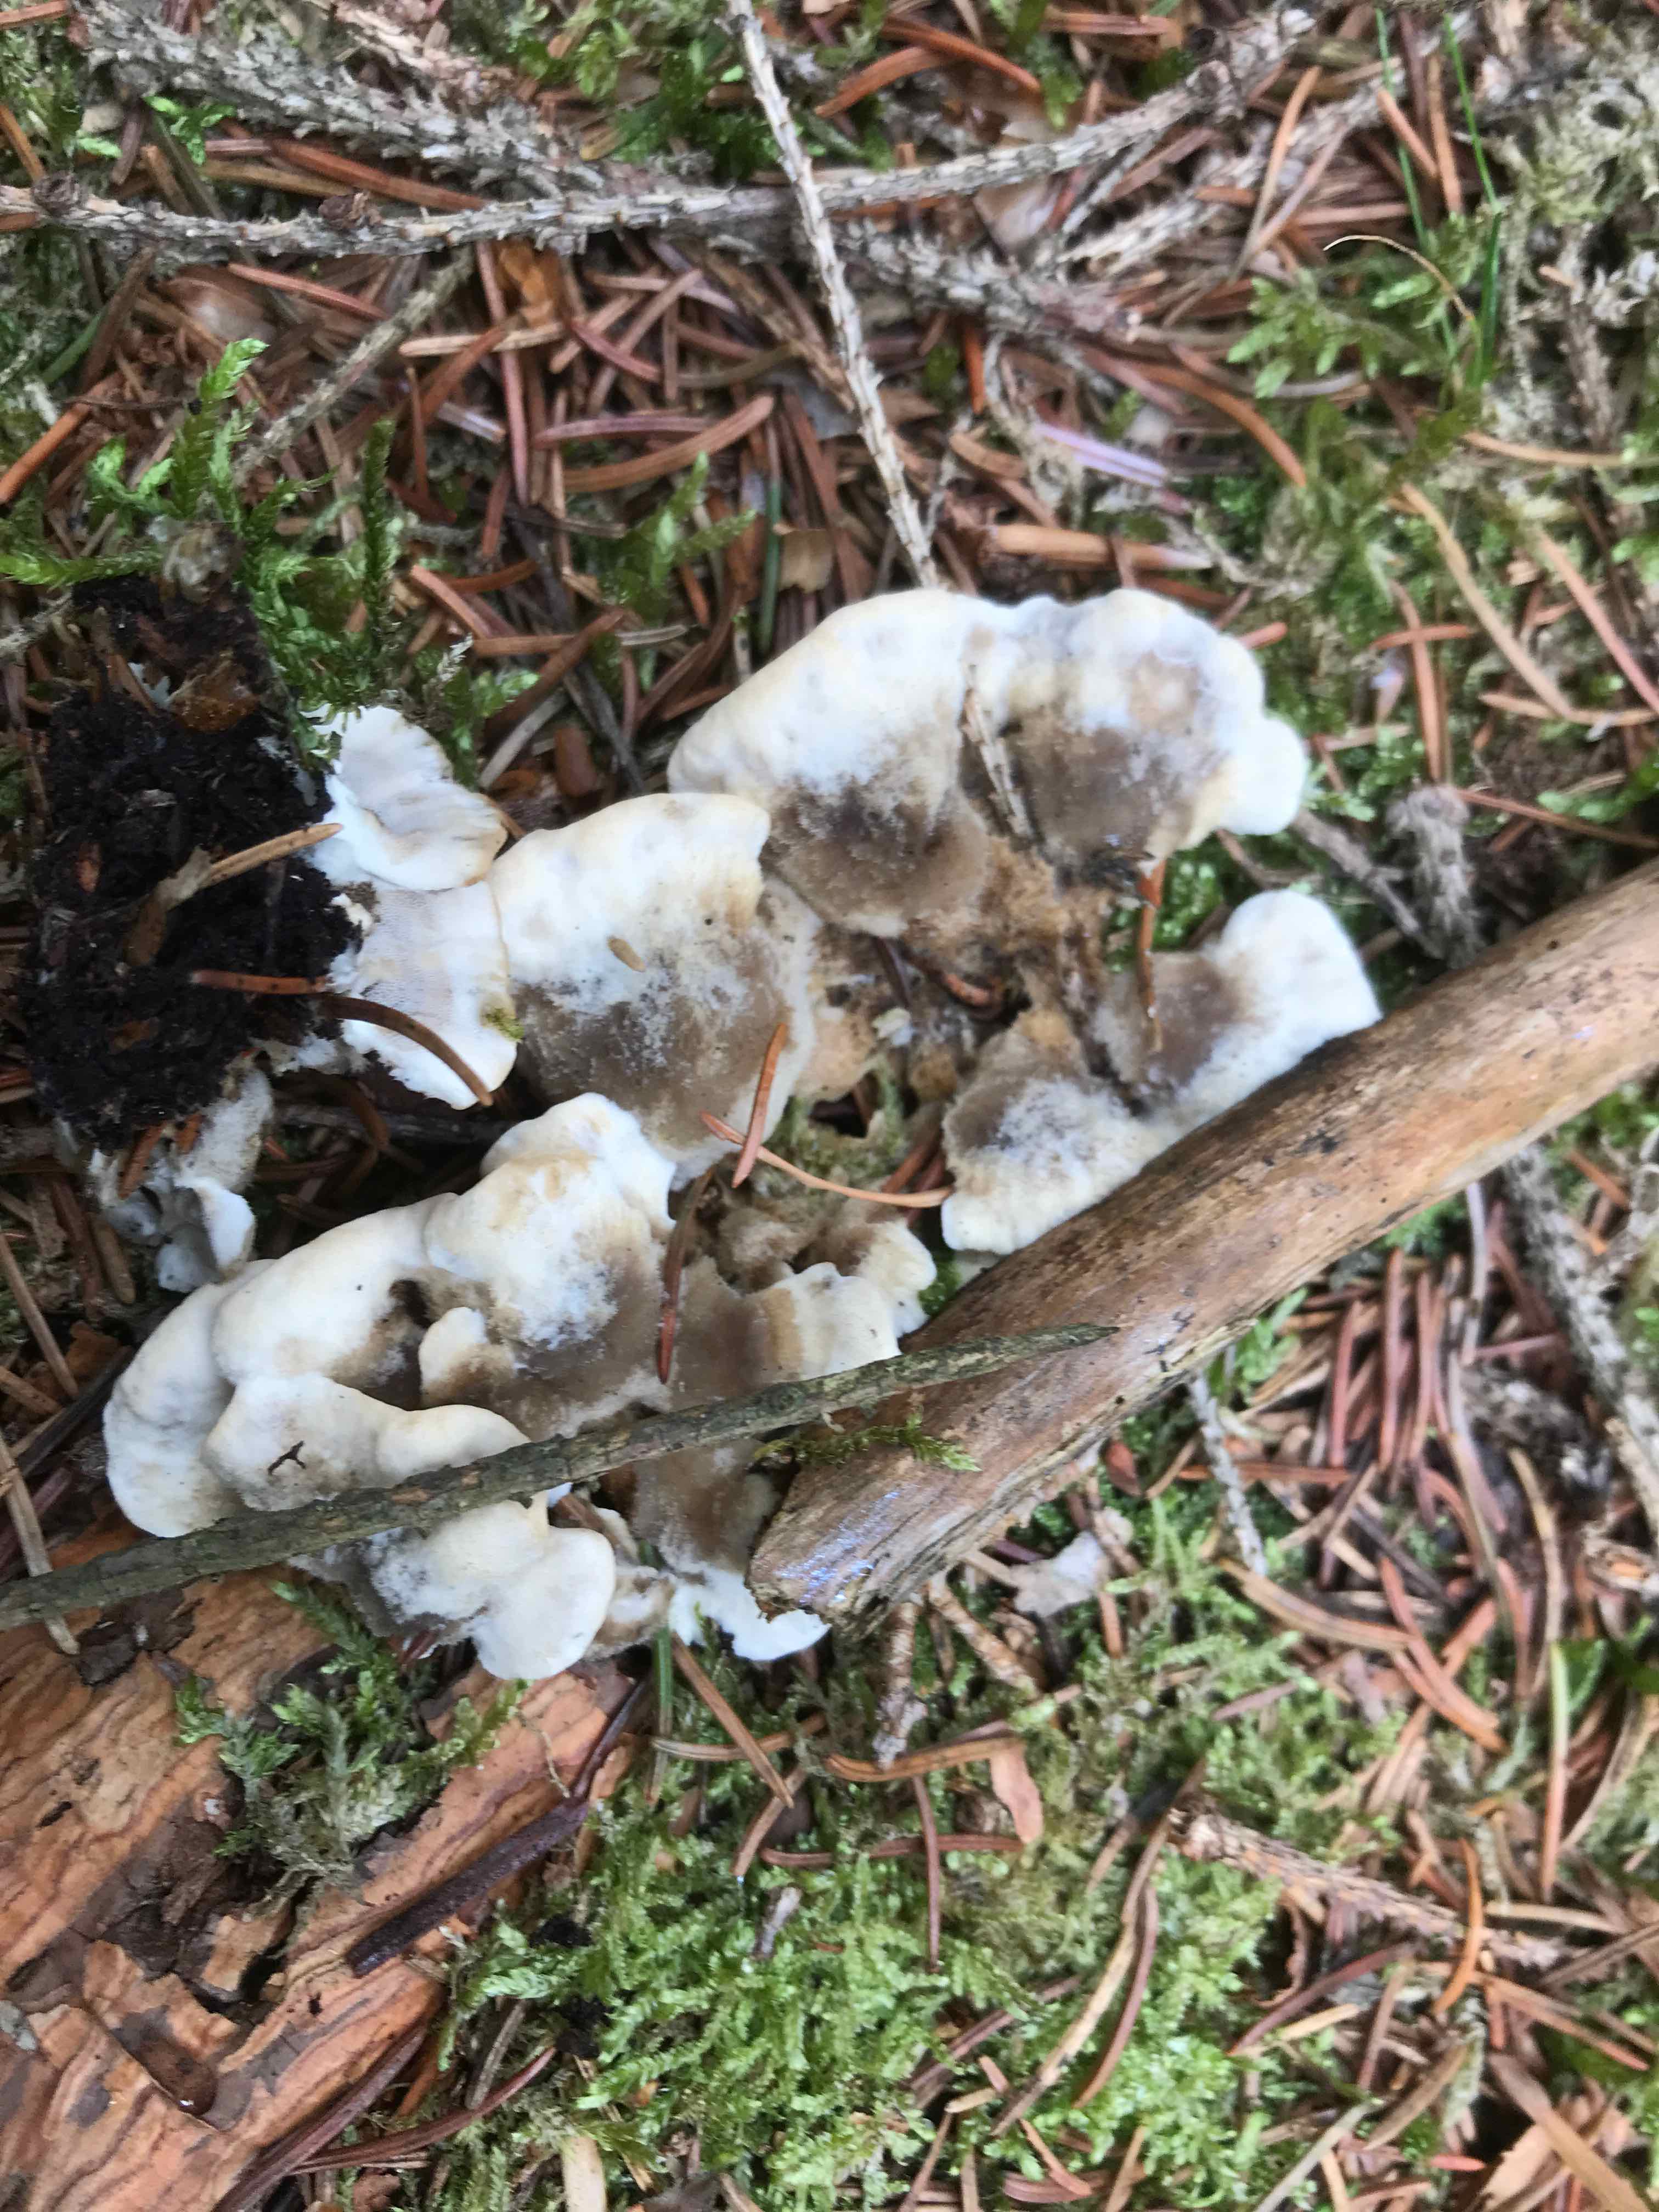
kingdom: Fungi
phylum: Basidiomycota
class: Agaricomycetes
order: Polyporales
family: Phanerochaetaceae
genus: Bjerkandera
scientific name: Bjerkandera adusta
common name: sveden sodporesvamp
